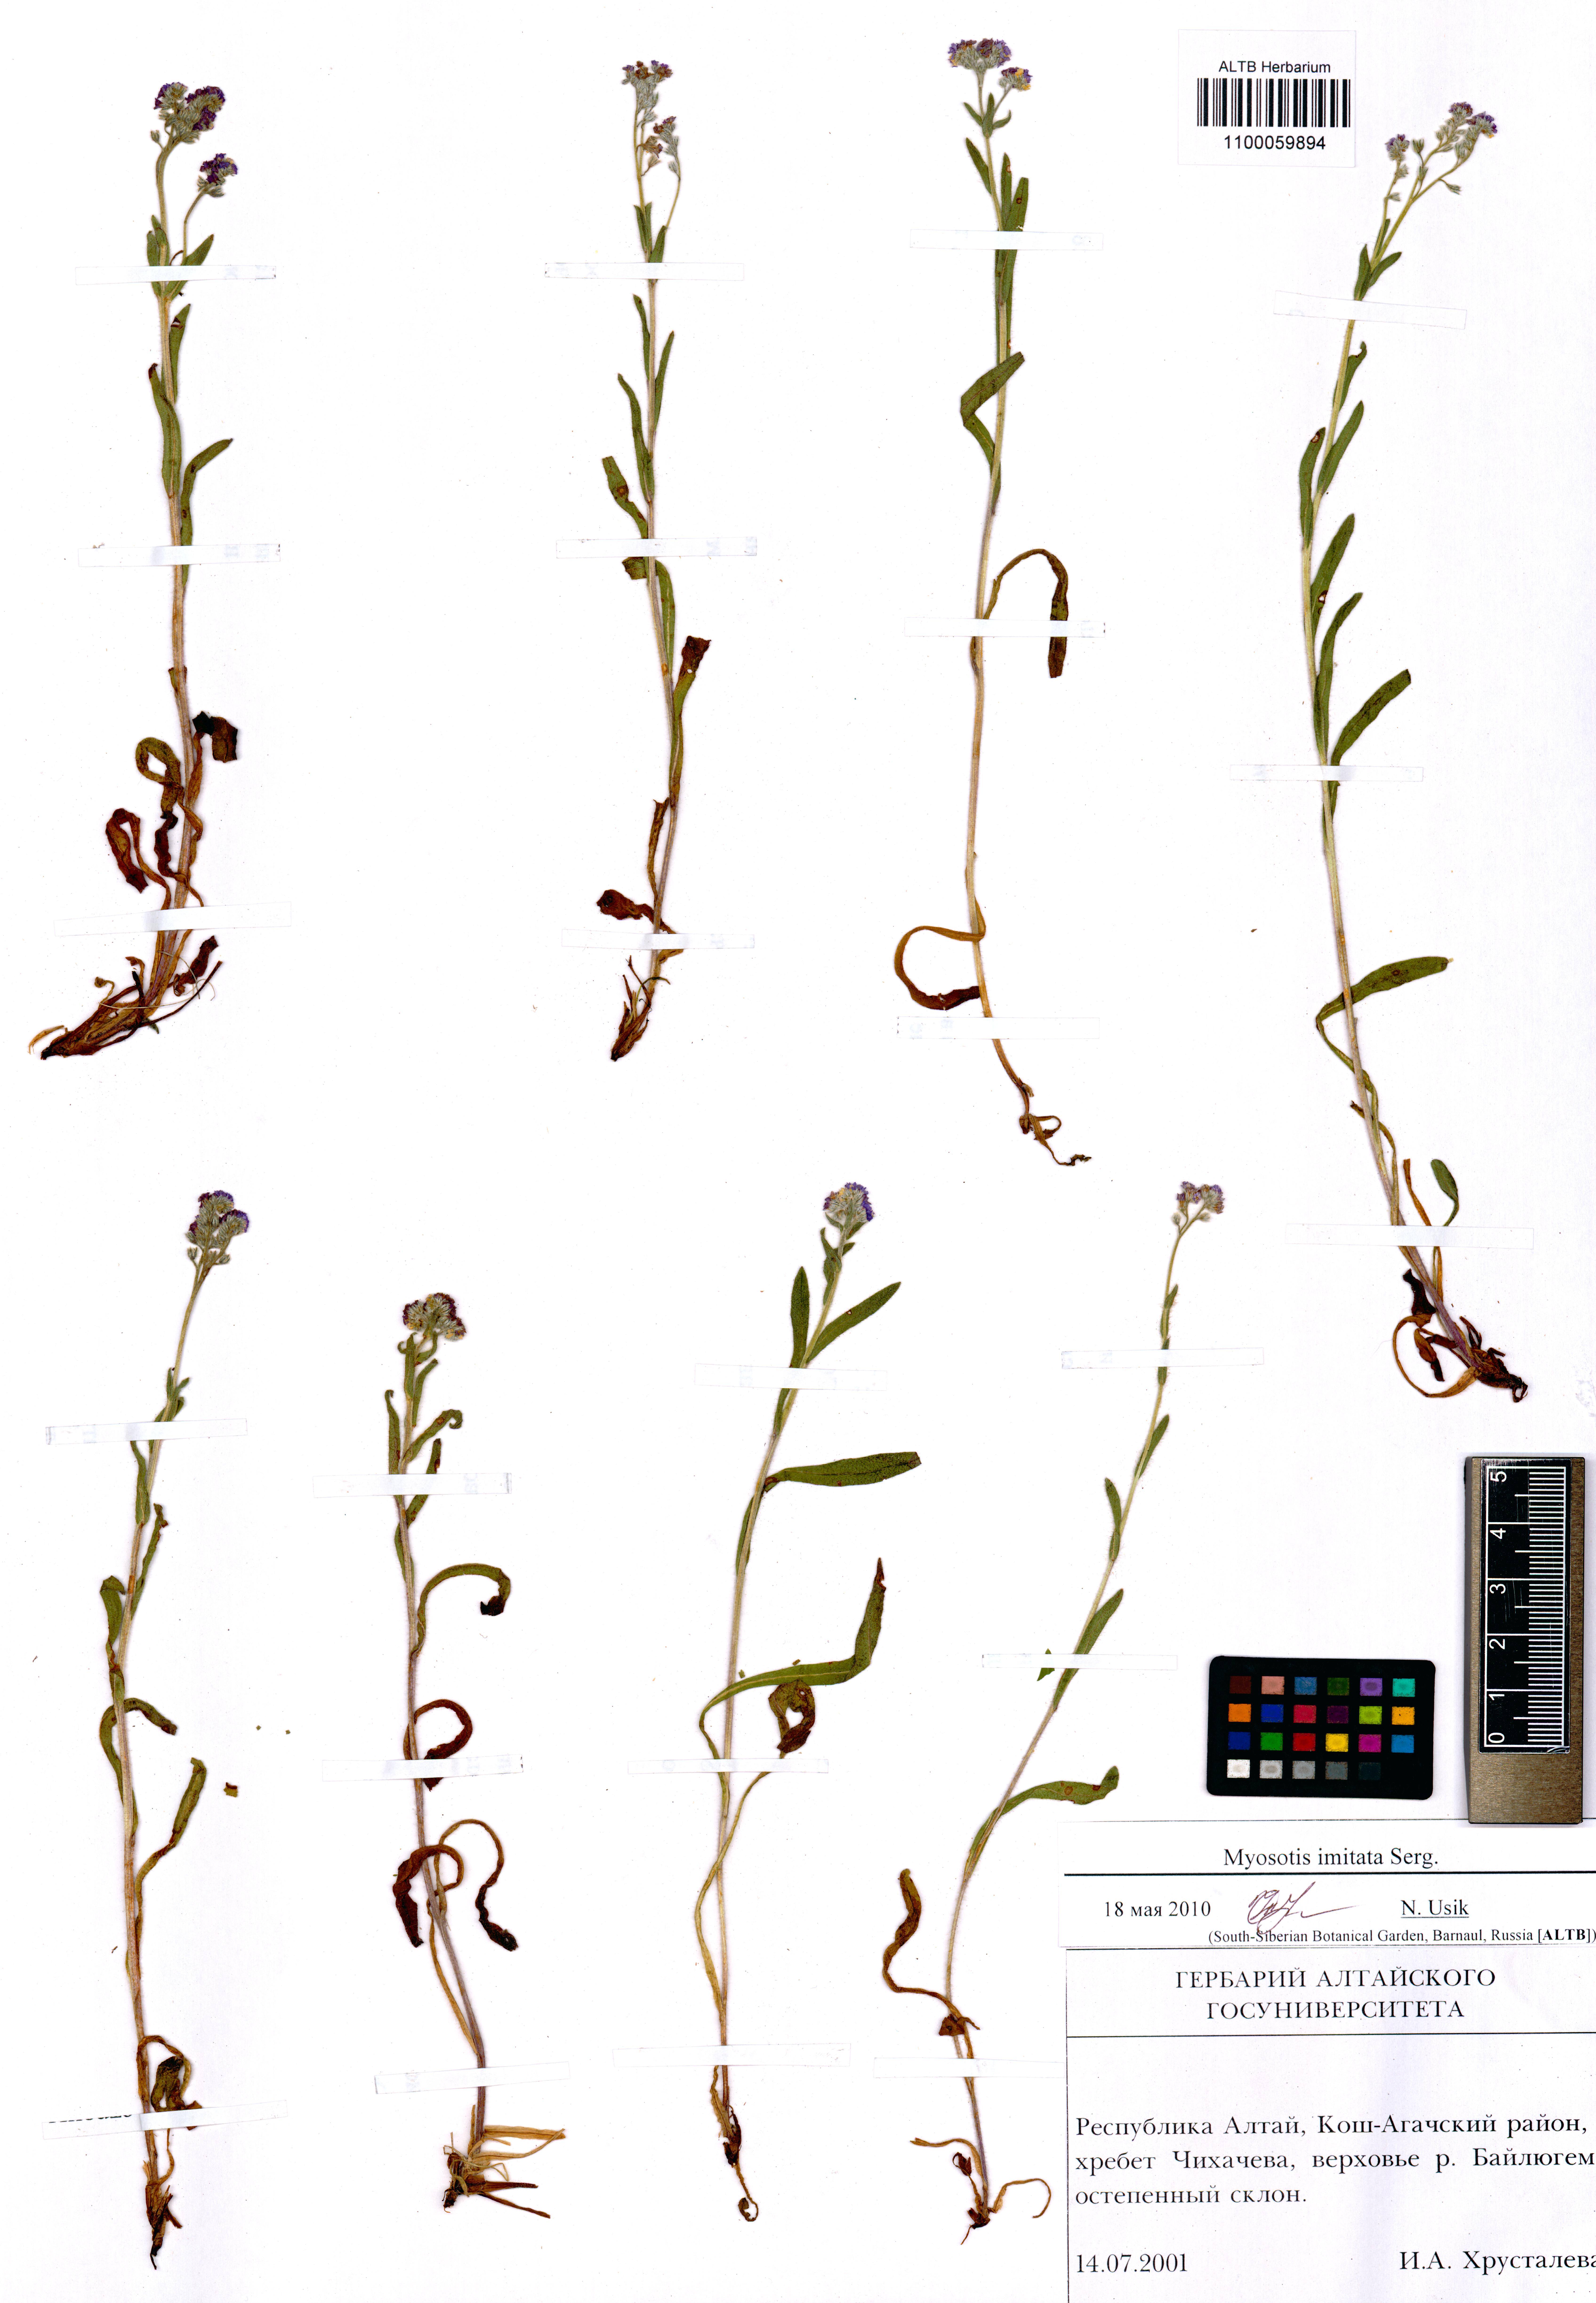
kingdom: Plantae
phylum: Tracheophyta
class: Magnoliopsida
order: Boraginales
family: Boraginaceae
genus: Myosotis
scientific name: Myosotis imitata
